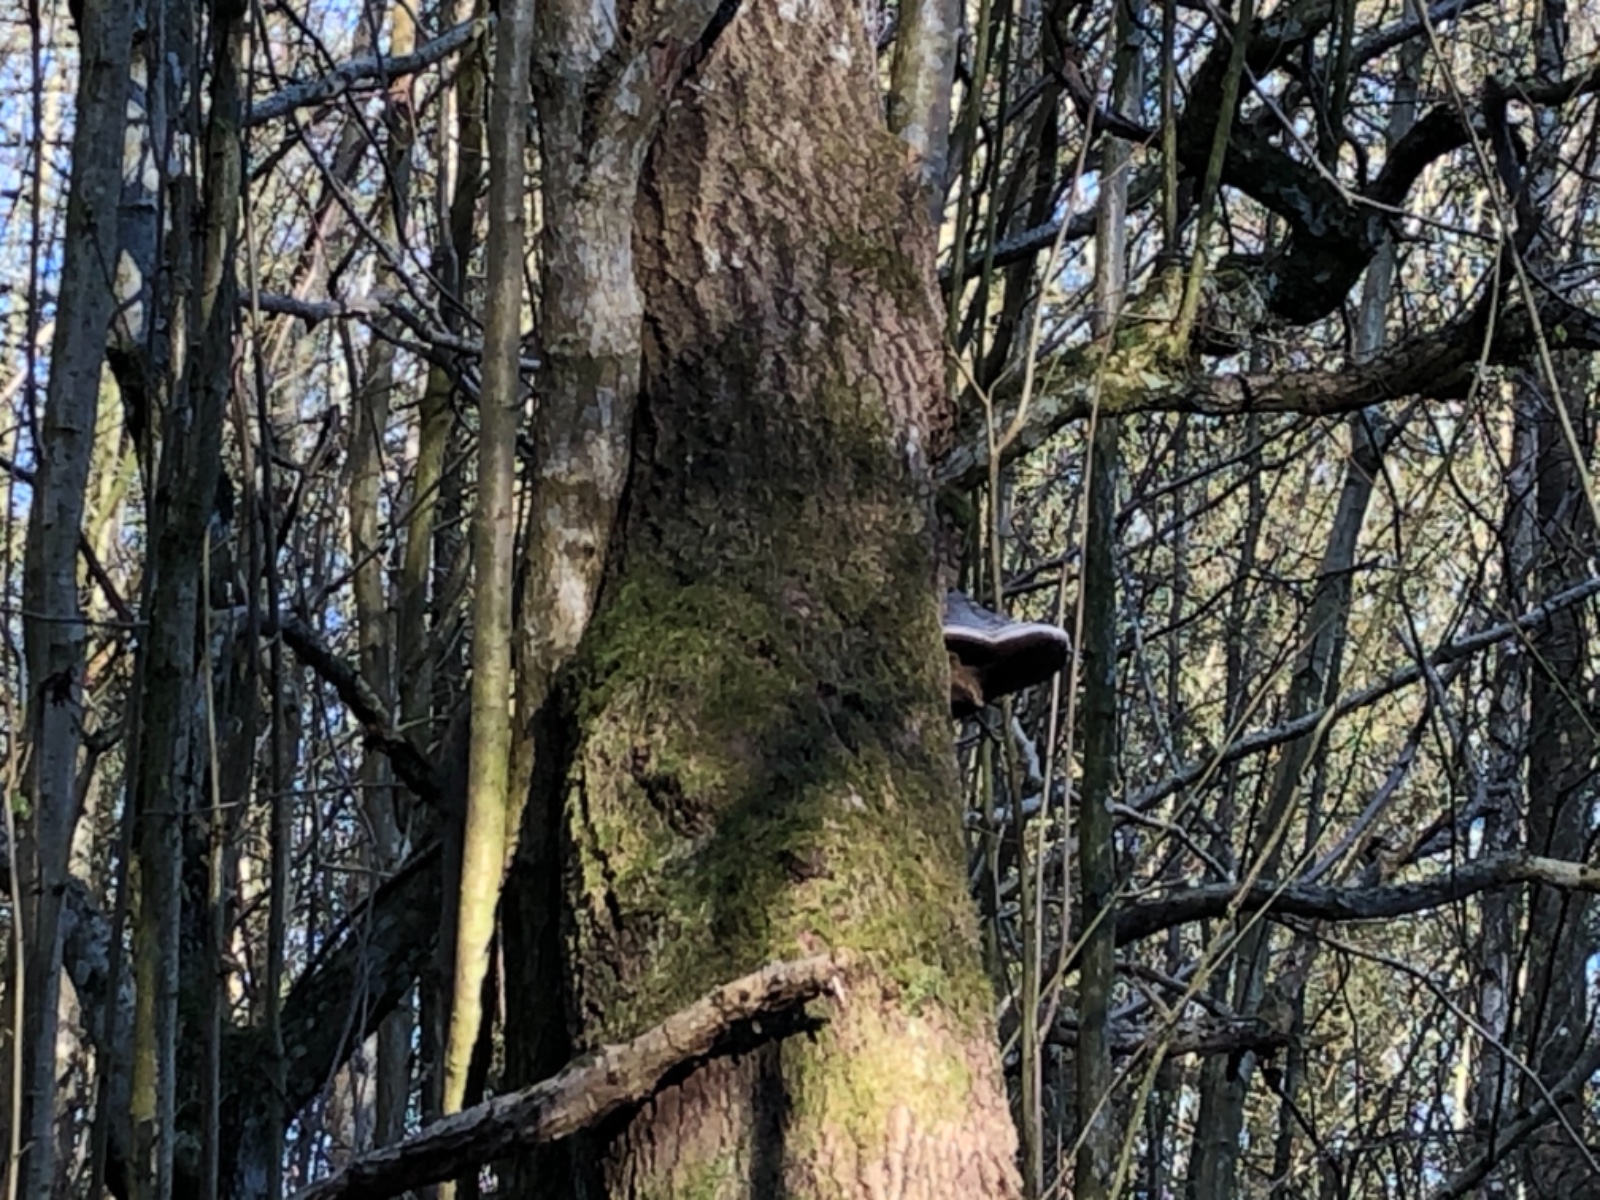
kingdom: Fungi
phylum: Basidiomycota
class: Agaricomycetes
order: Hymenochaetales
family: Hymenochaetaceae
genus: Phellinus
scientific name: Phellinus populicola
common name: poppel-ildporesvamp
